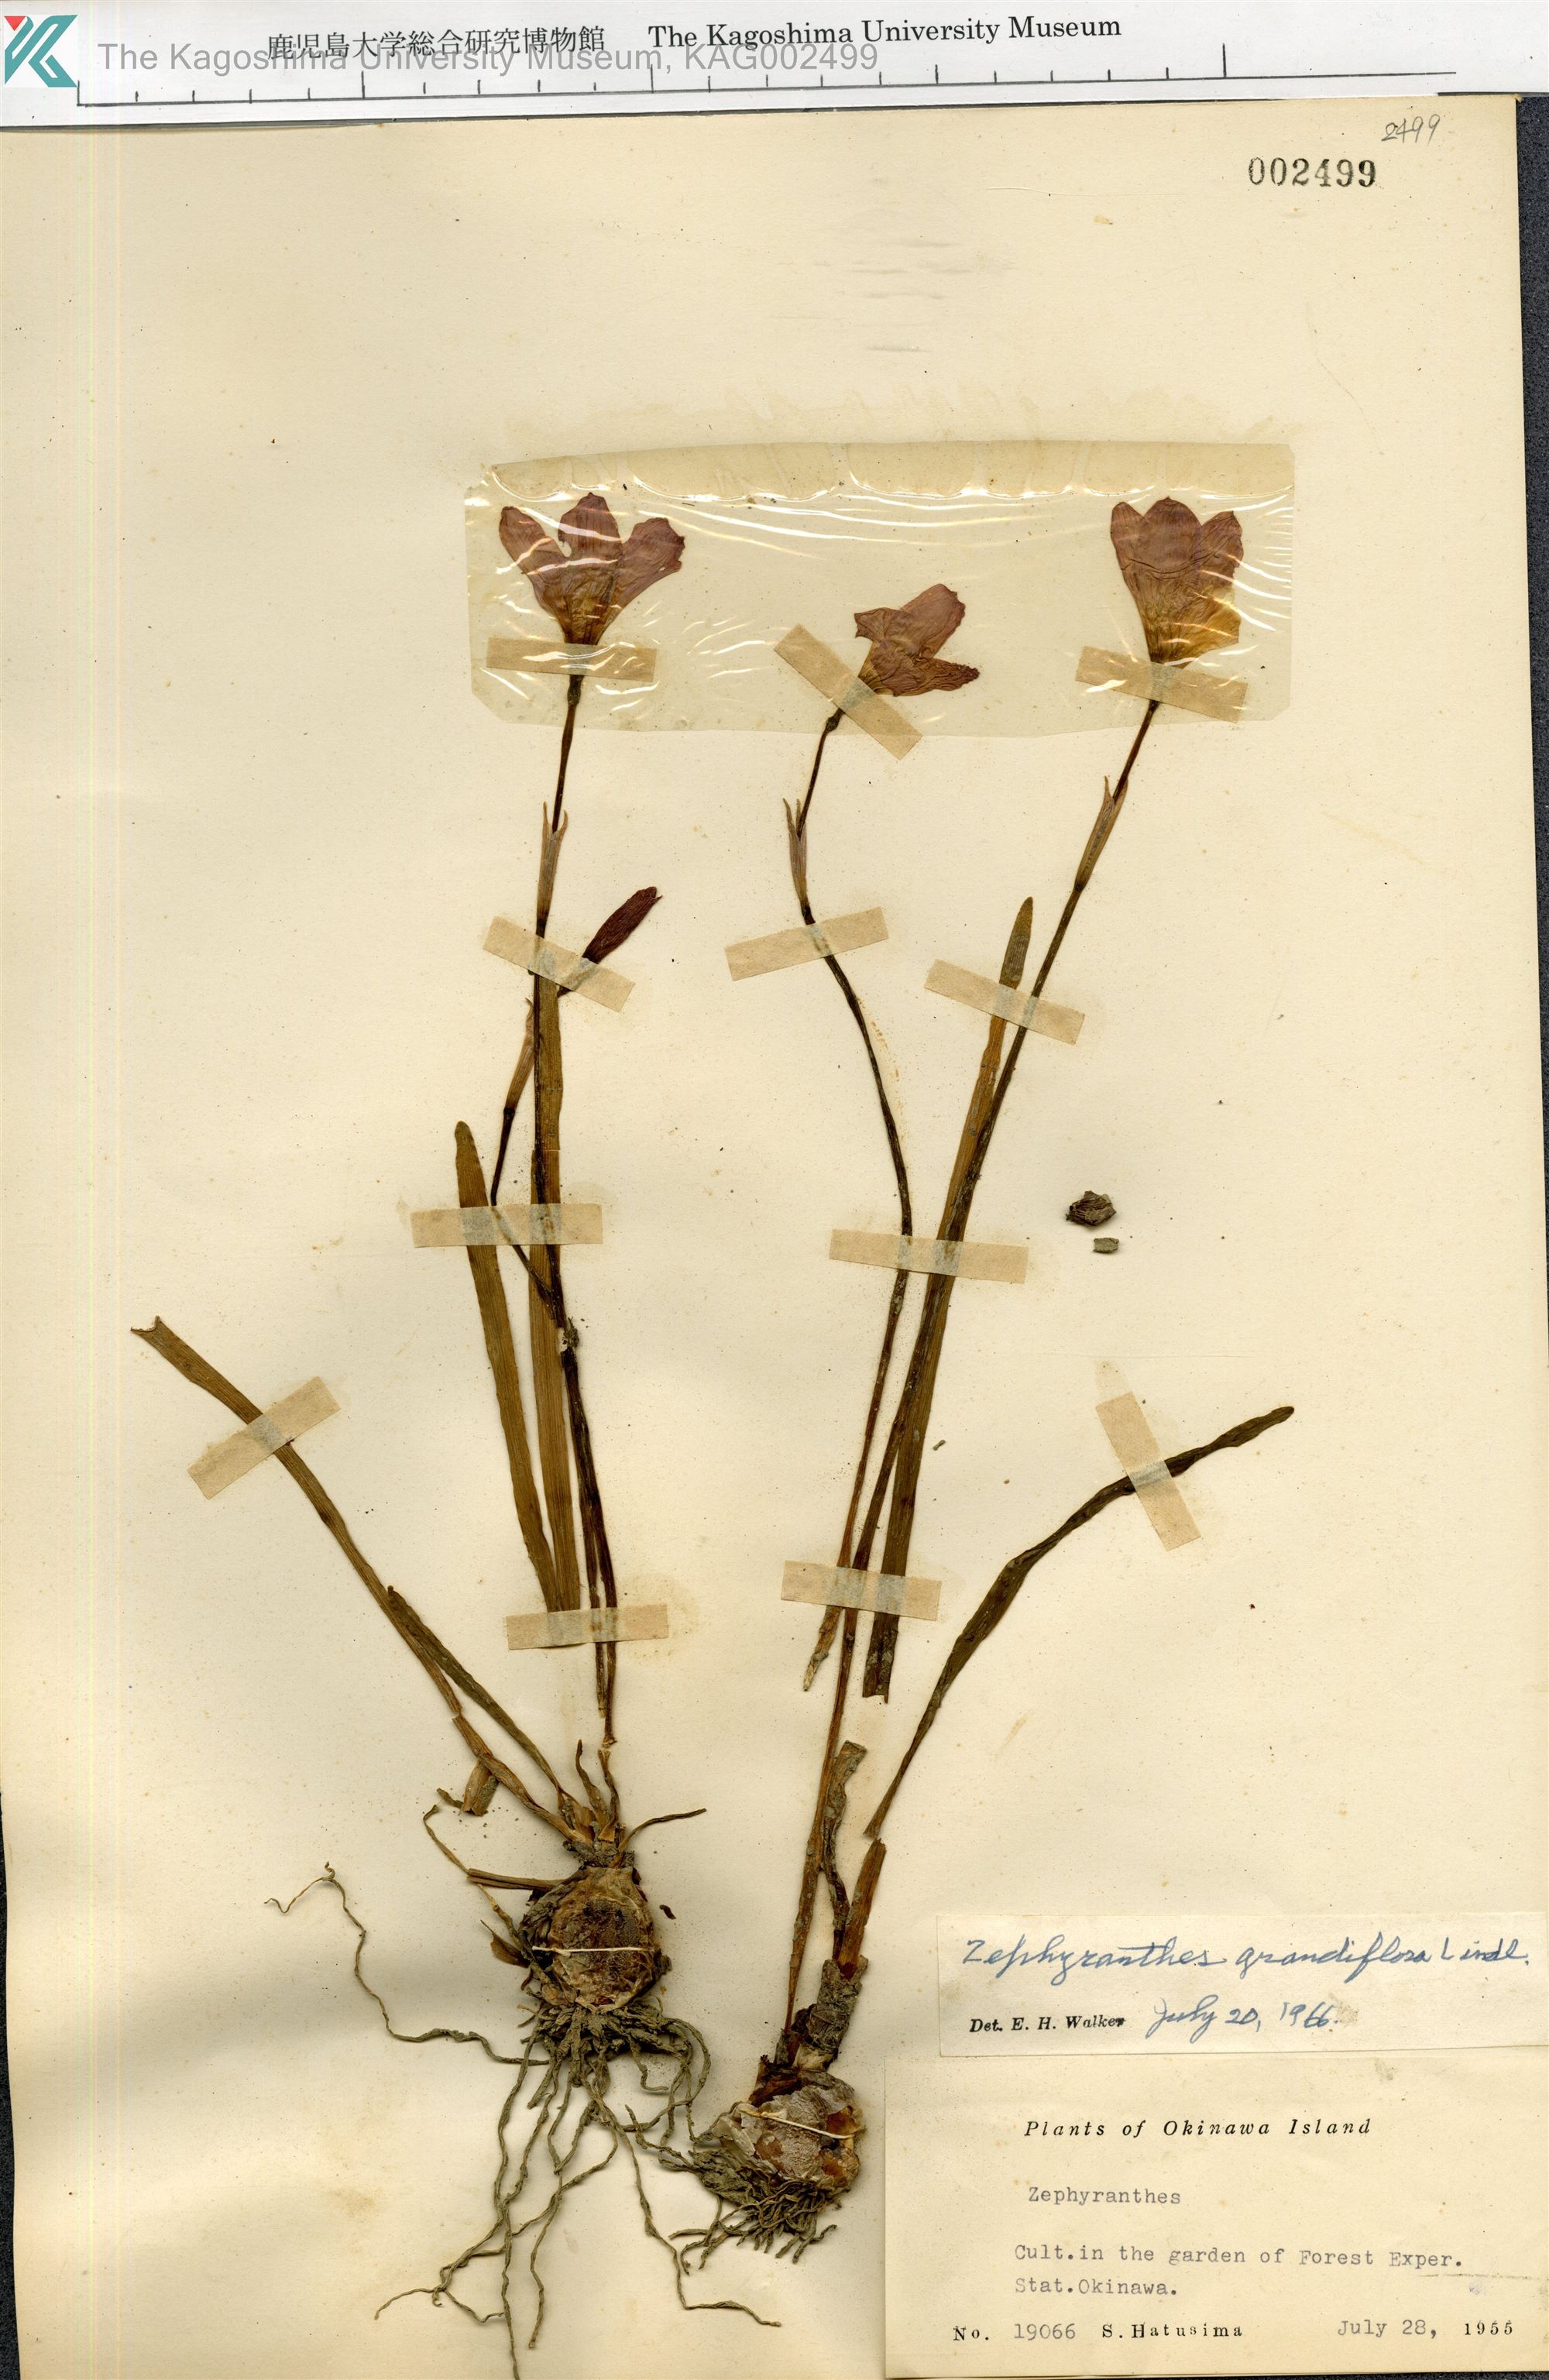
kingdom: Plantae
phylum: Tracheophyta
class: Liliopsida
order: Asparagales
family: Amaryllidaceae
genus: Zephyranthes
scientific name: Zephyranthes minuta
